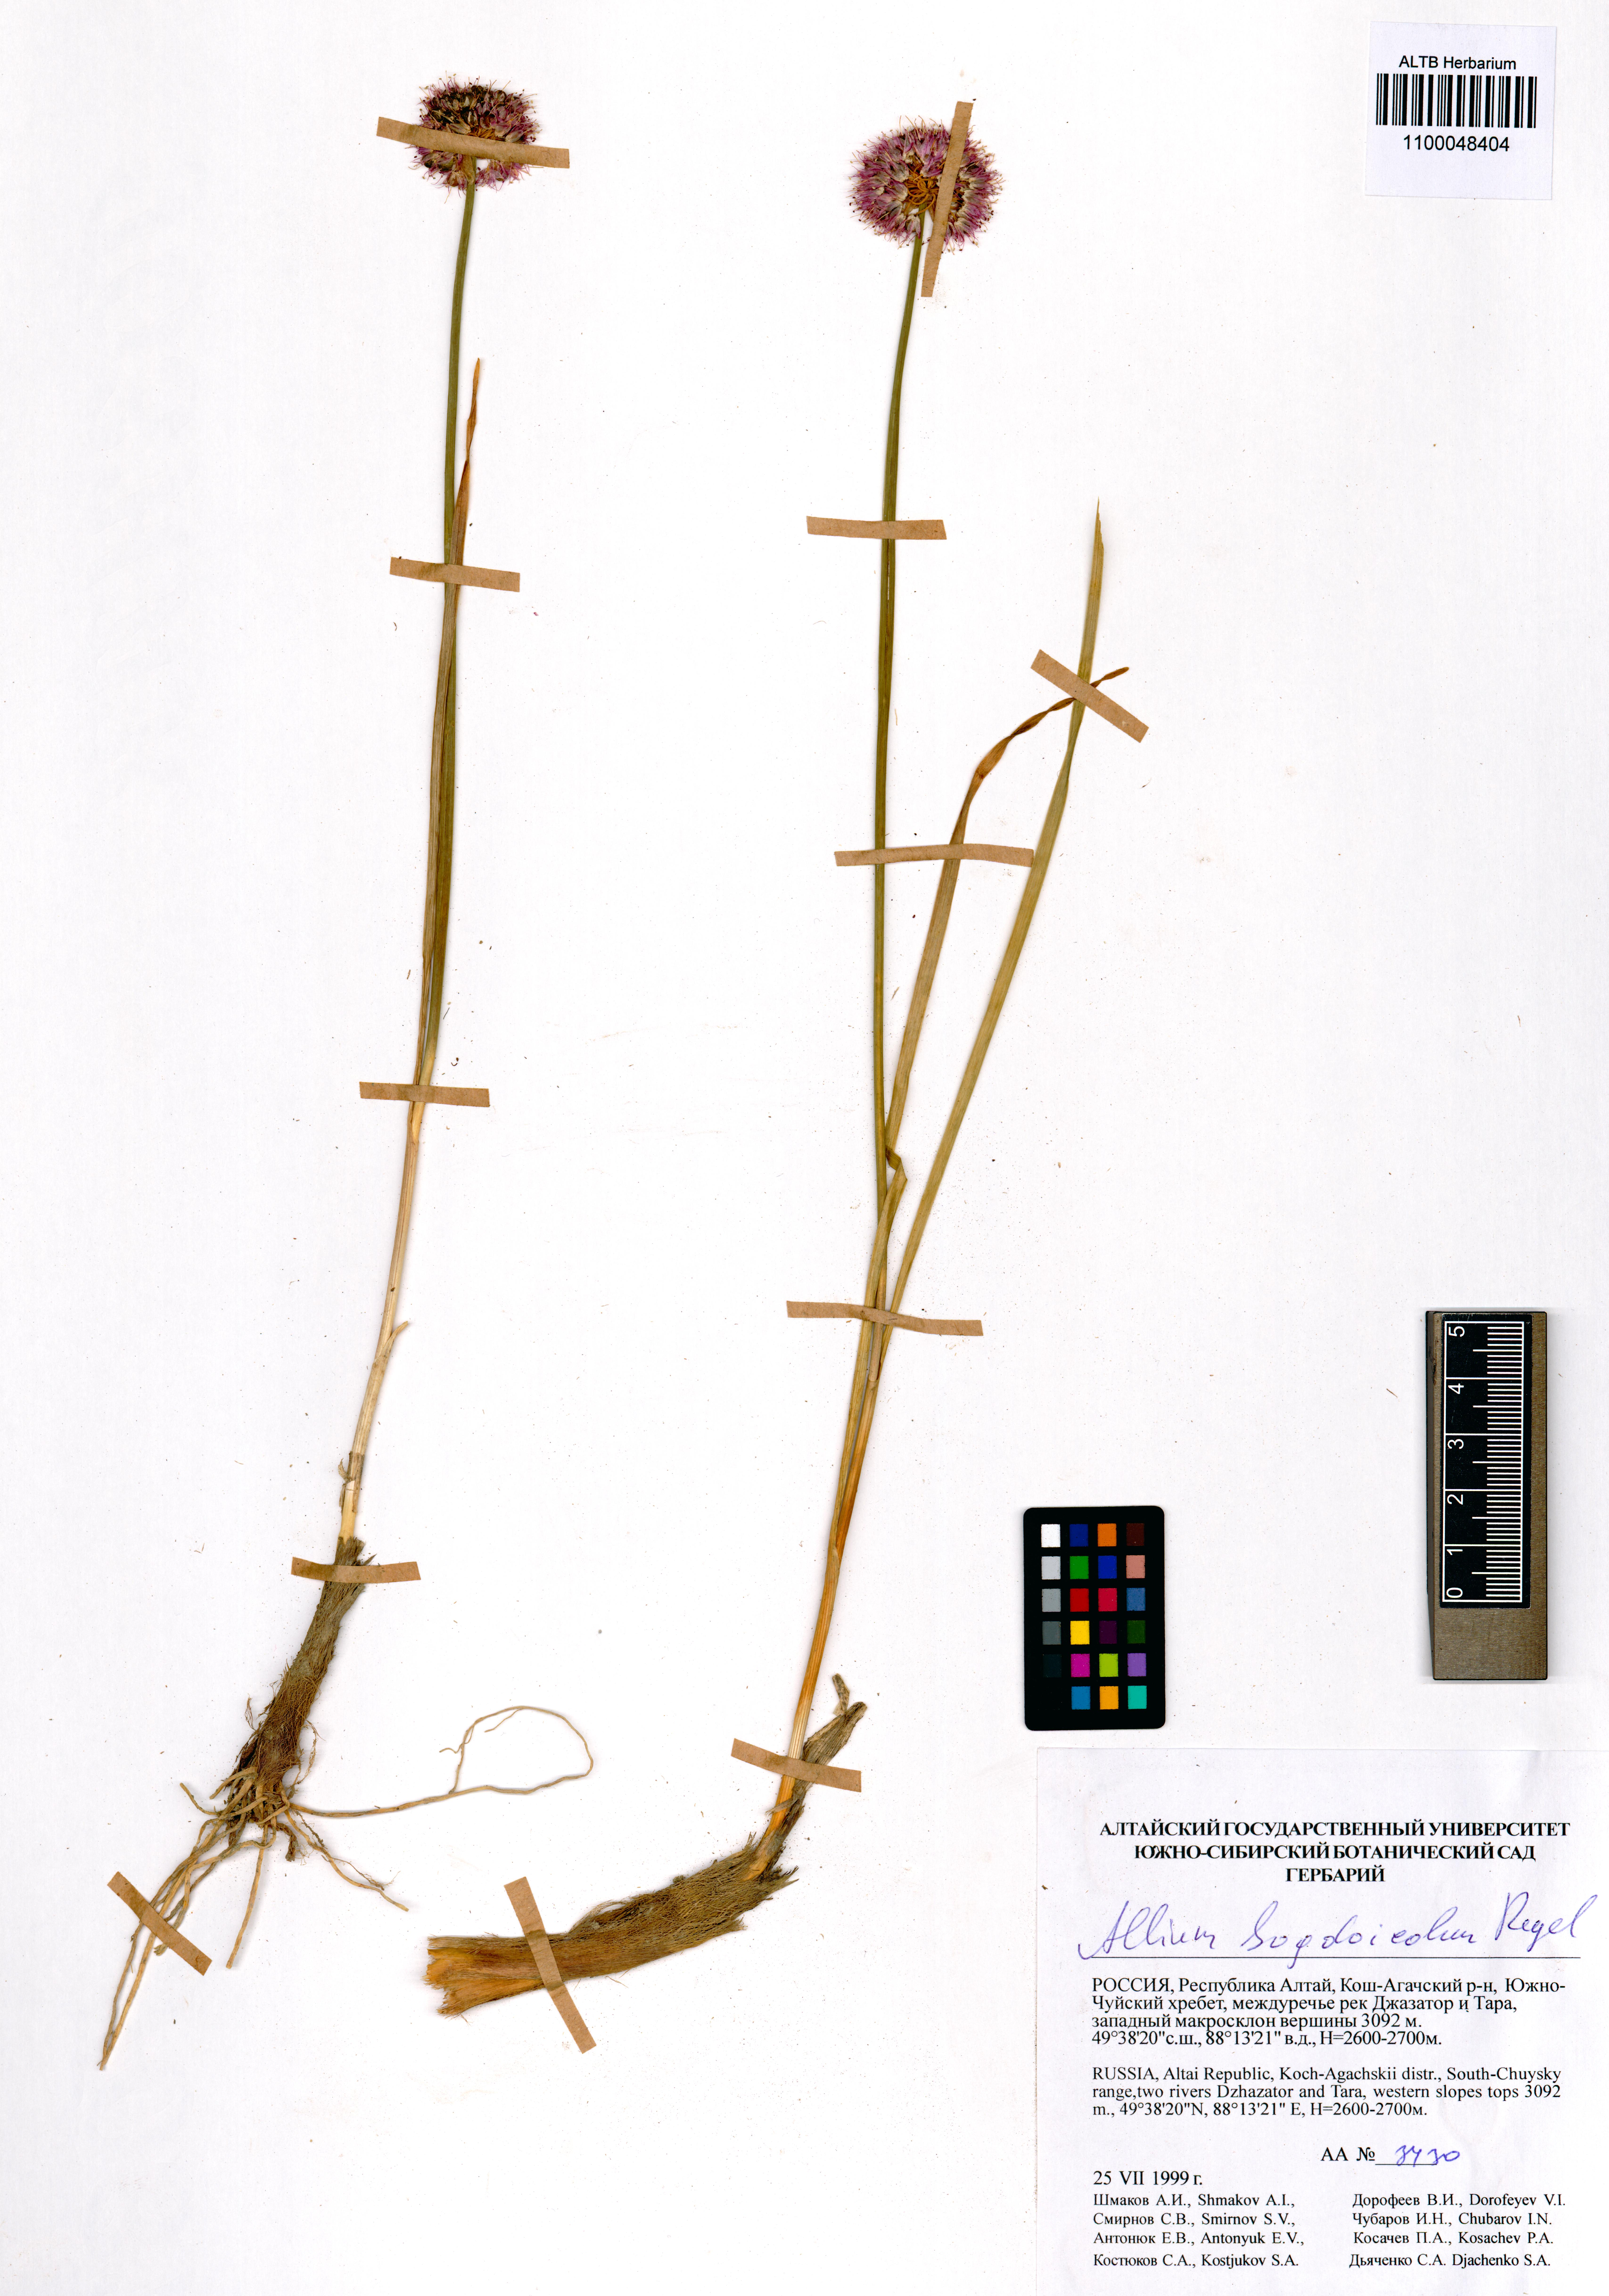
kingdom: Plantae
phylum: Tracheophyta
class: Liliopsida
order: Asparagales
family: Amaryllidaceae
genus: Allium
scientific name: Allium schrenkii
